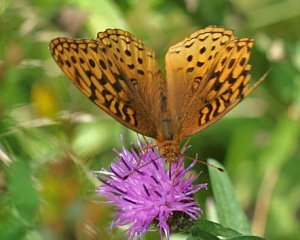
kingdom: Animalia
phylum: Arthropoda
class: Insecta
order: Lepidoptera
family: Nymphalidae
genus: Speyeria
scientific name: Speyeria cybele
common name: Great Spangled Fritillary
